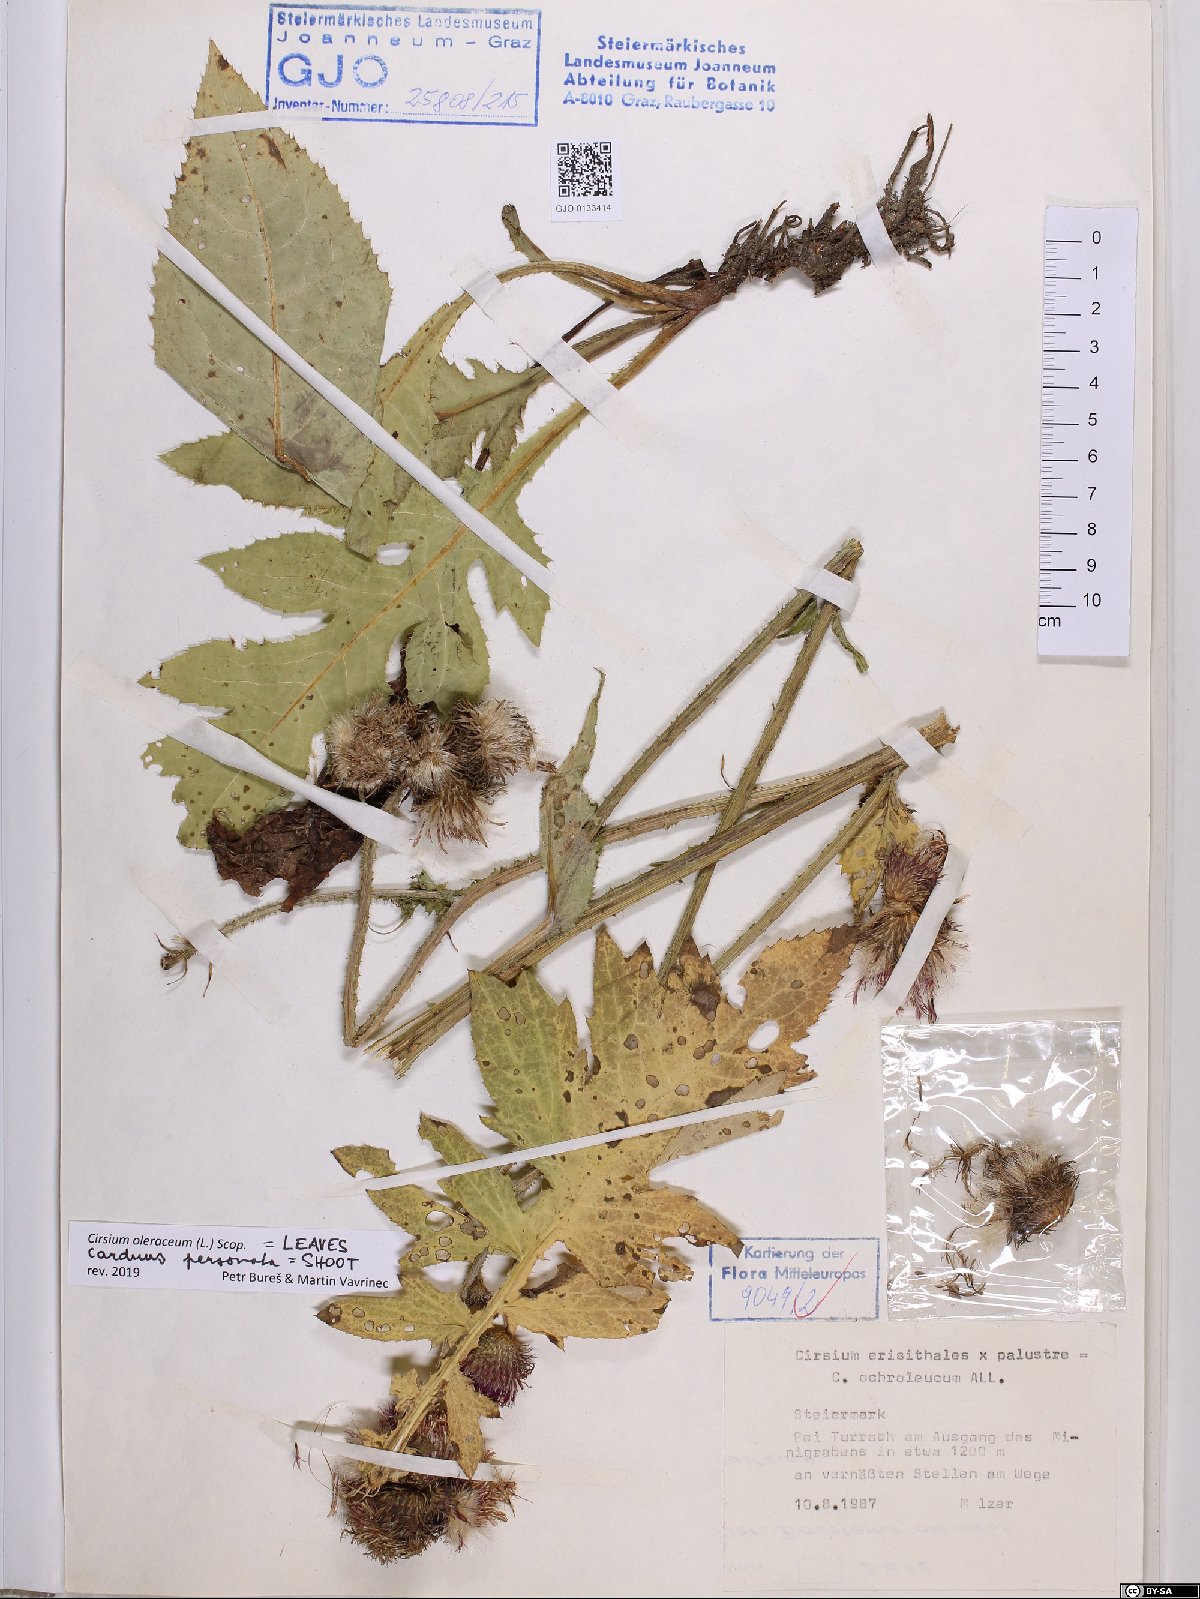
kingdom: Plantae
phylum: Tracheophyta
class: Magnoliopsida
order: Asterales
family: Asteraceae
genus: Cirsium
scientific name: Cirsium oleraceum
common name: Cabbage thistle
